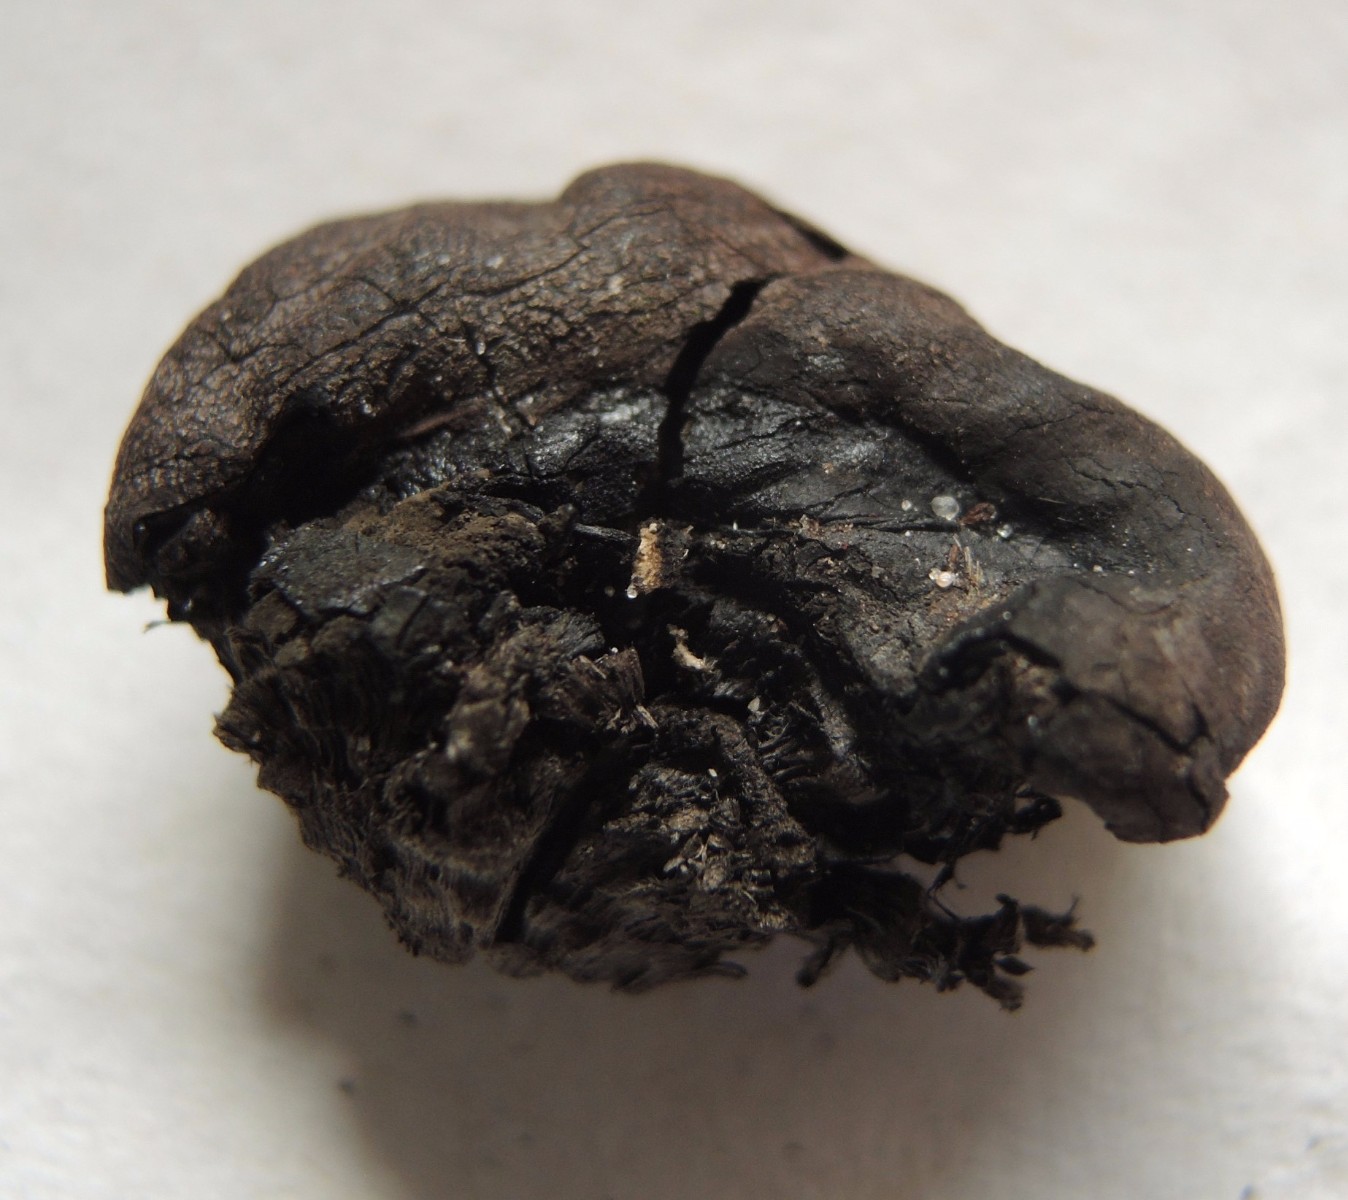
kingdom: Fungi
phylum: Ascomycota
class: Sordariomycetes
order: Xylariales
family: Hypoxylaceae
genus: Daldinia
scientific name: Daldinia concentrica
